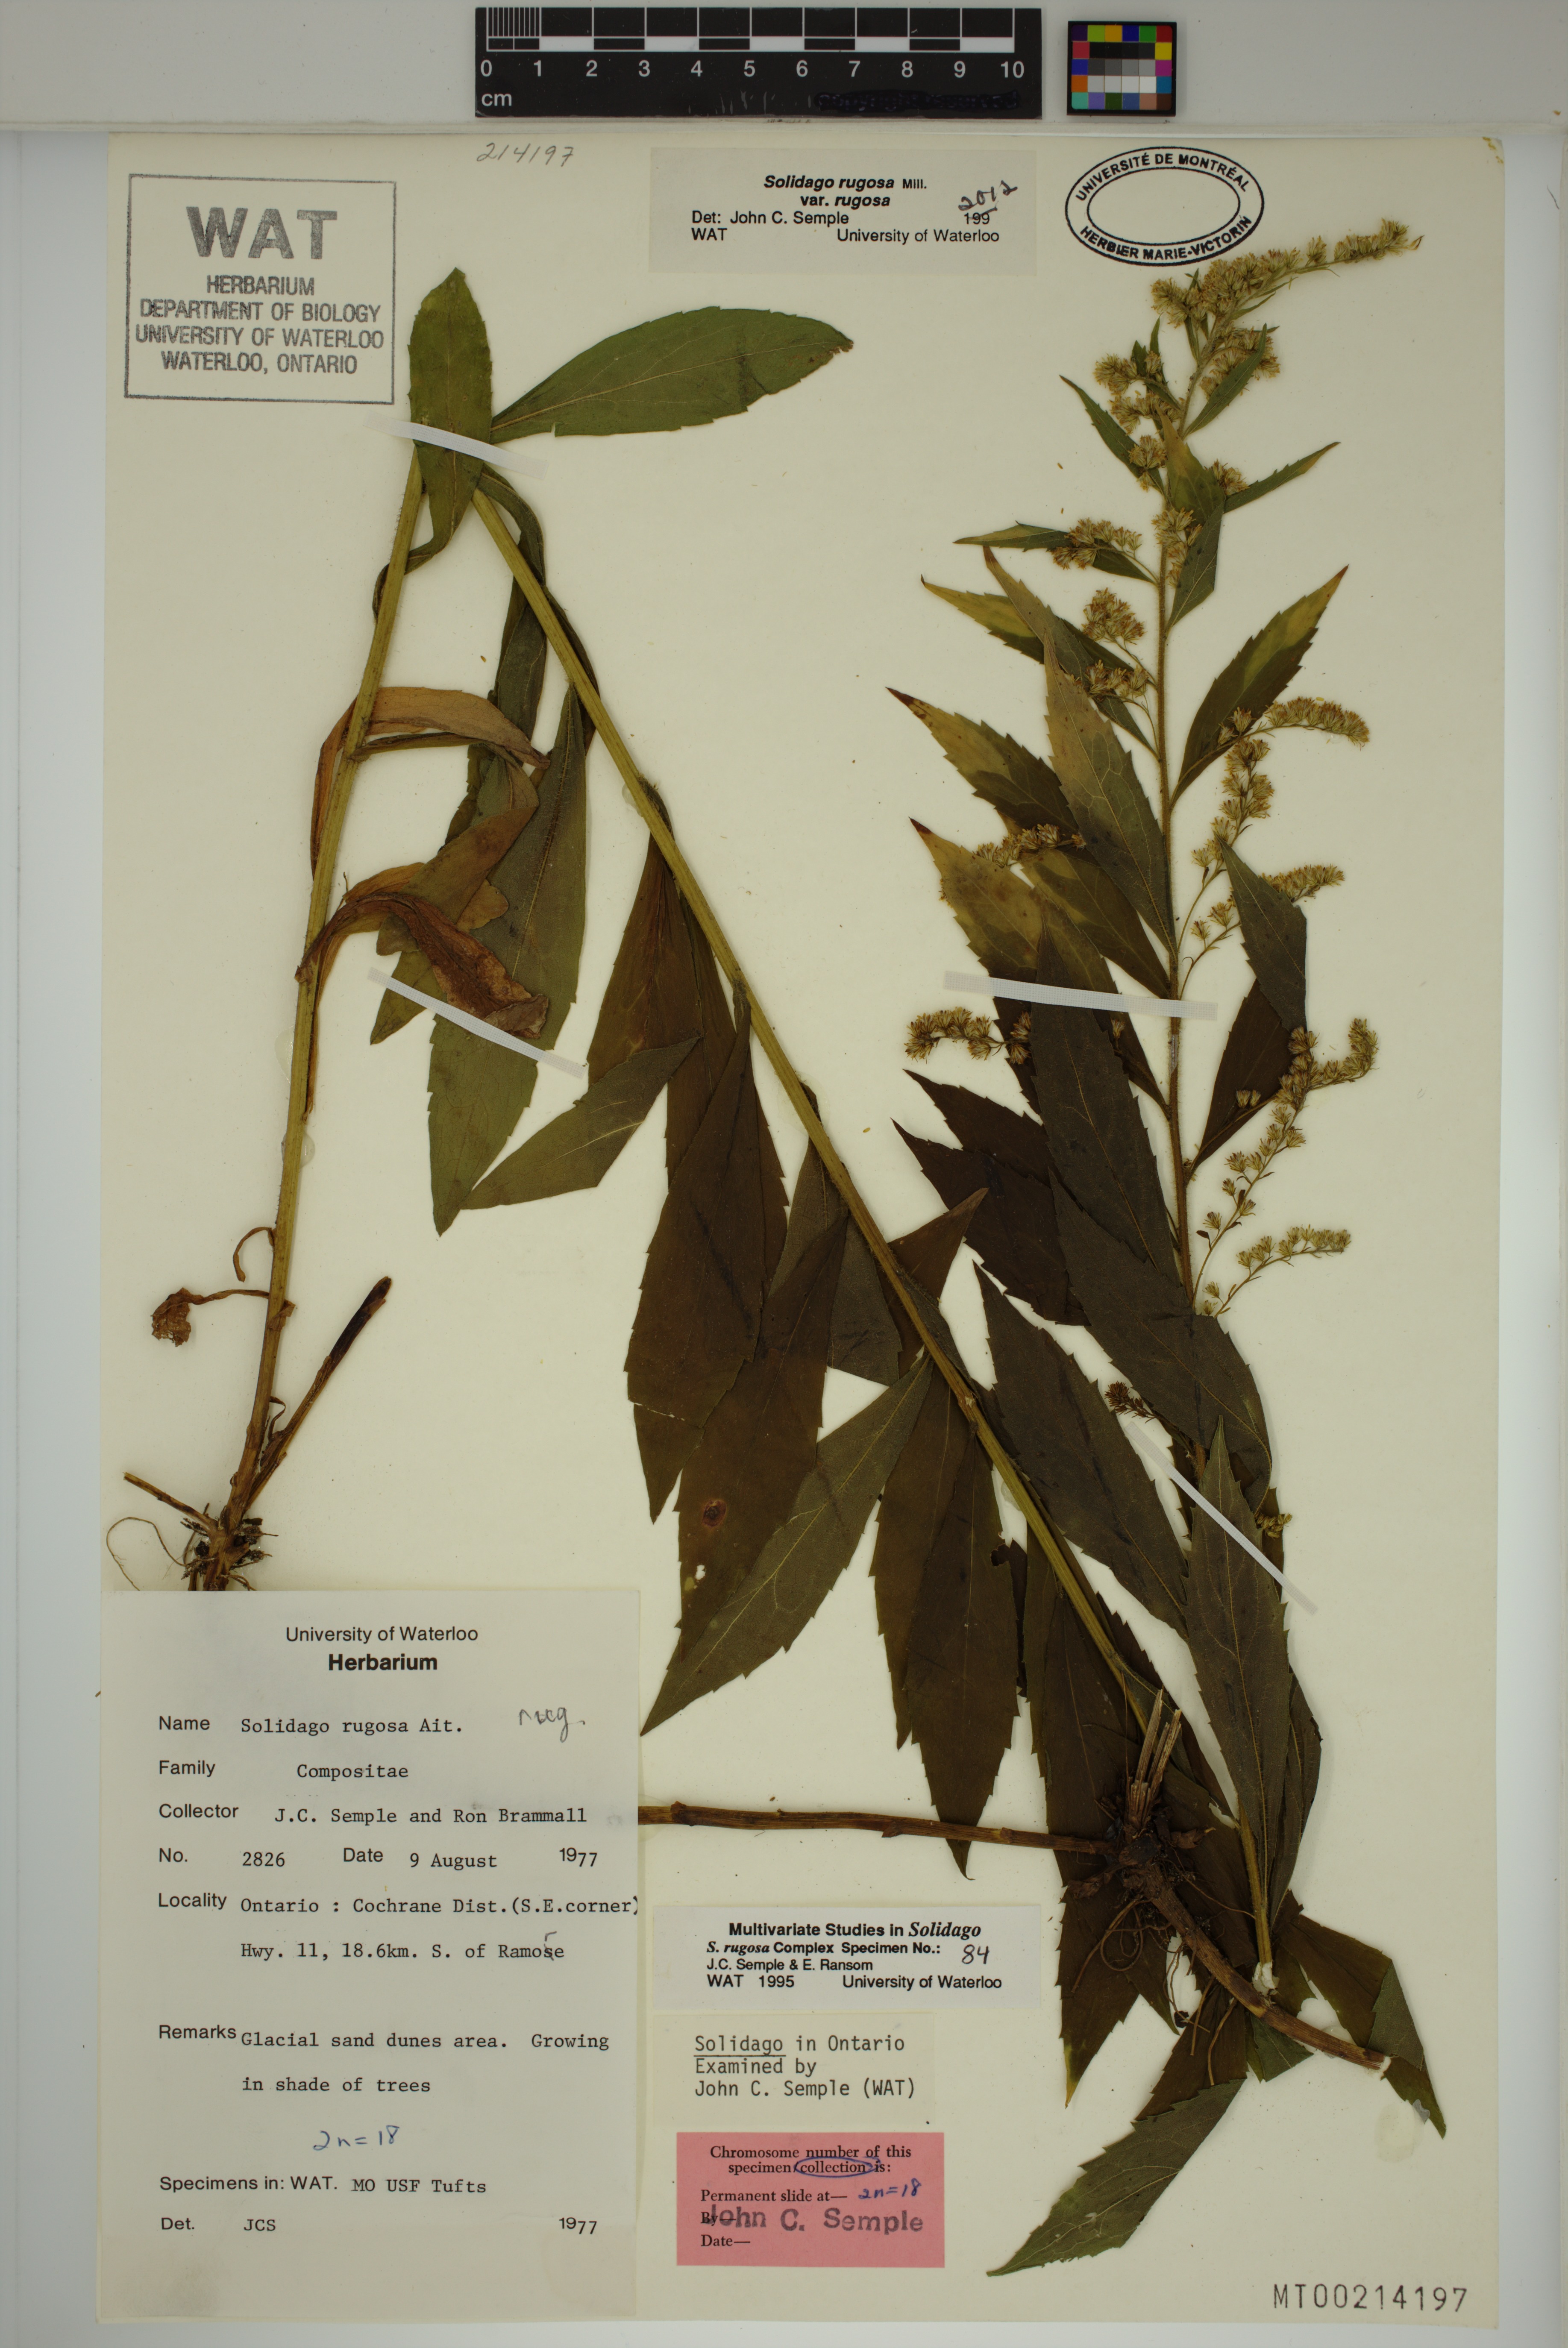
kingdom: Plantae
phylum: Tracheophyta
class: Magnoliopsida
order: Asterales
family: Asteraceae
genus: Solidago
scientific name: Solidago rugosa
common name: Rough-stemmed goldenrod
